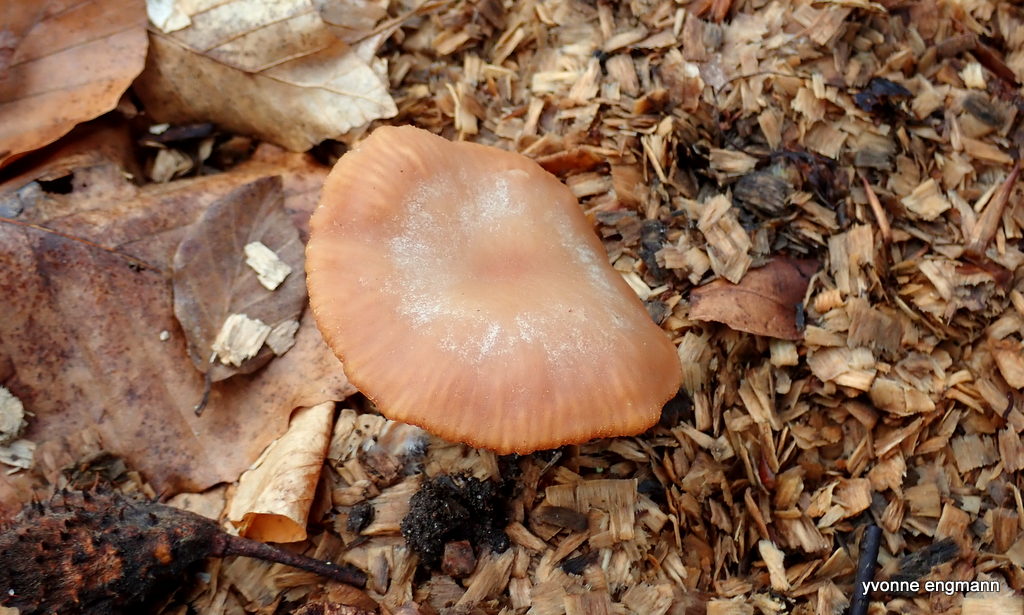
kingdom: Fungi
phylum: Basidiomycota
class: Agaricomycetes
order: Agaricales
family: Tubariaceae
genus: Tubaria
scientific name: Tubaria furfuracea
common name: kliddet fnughat
